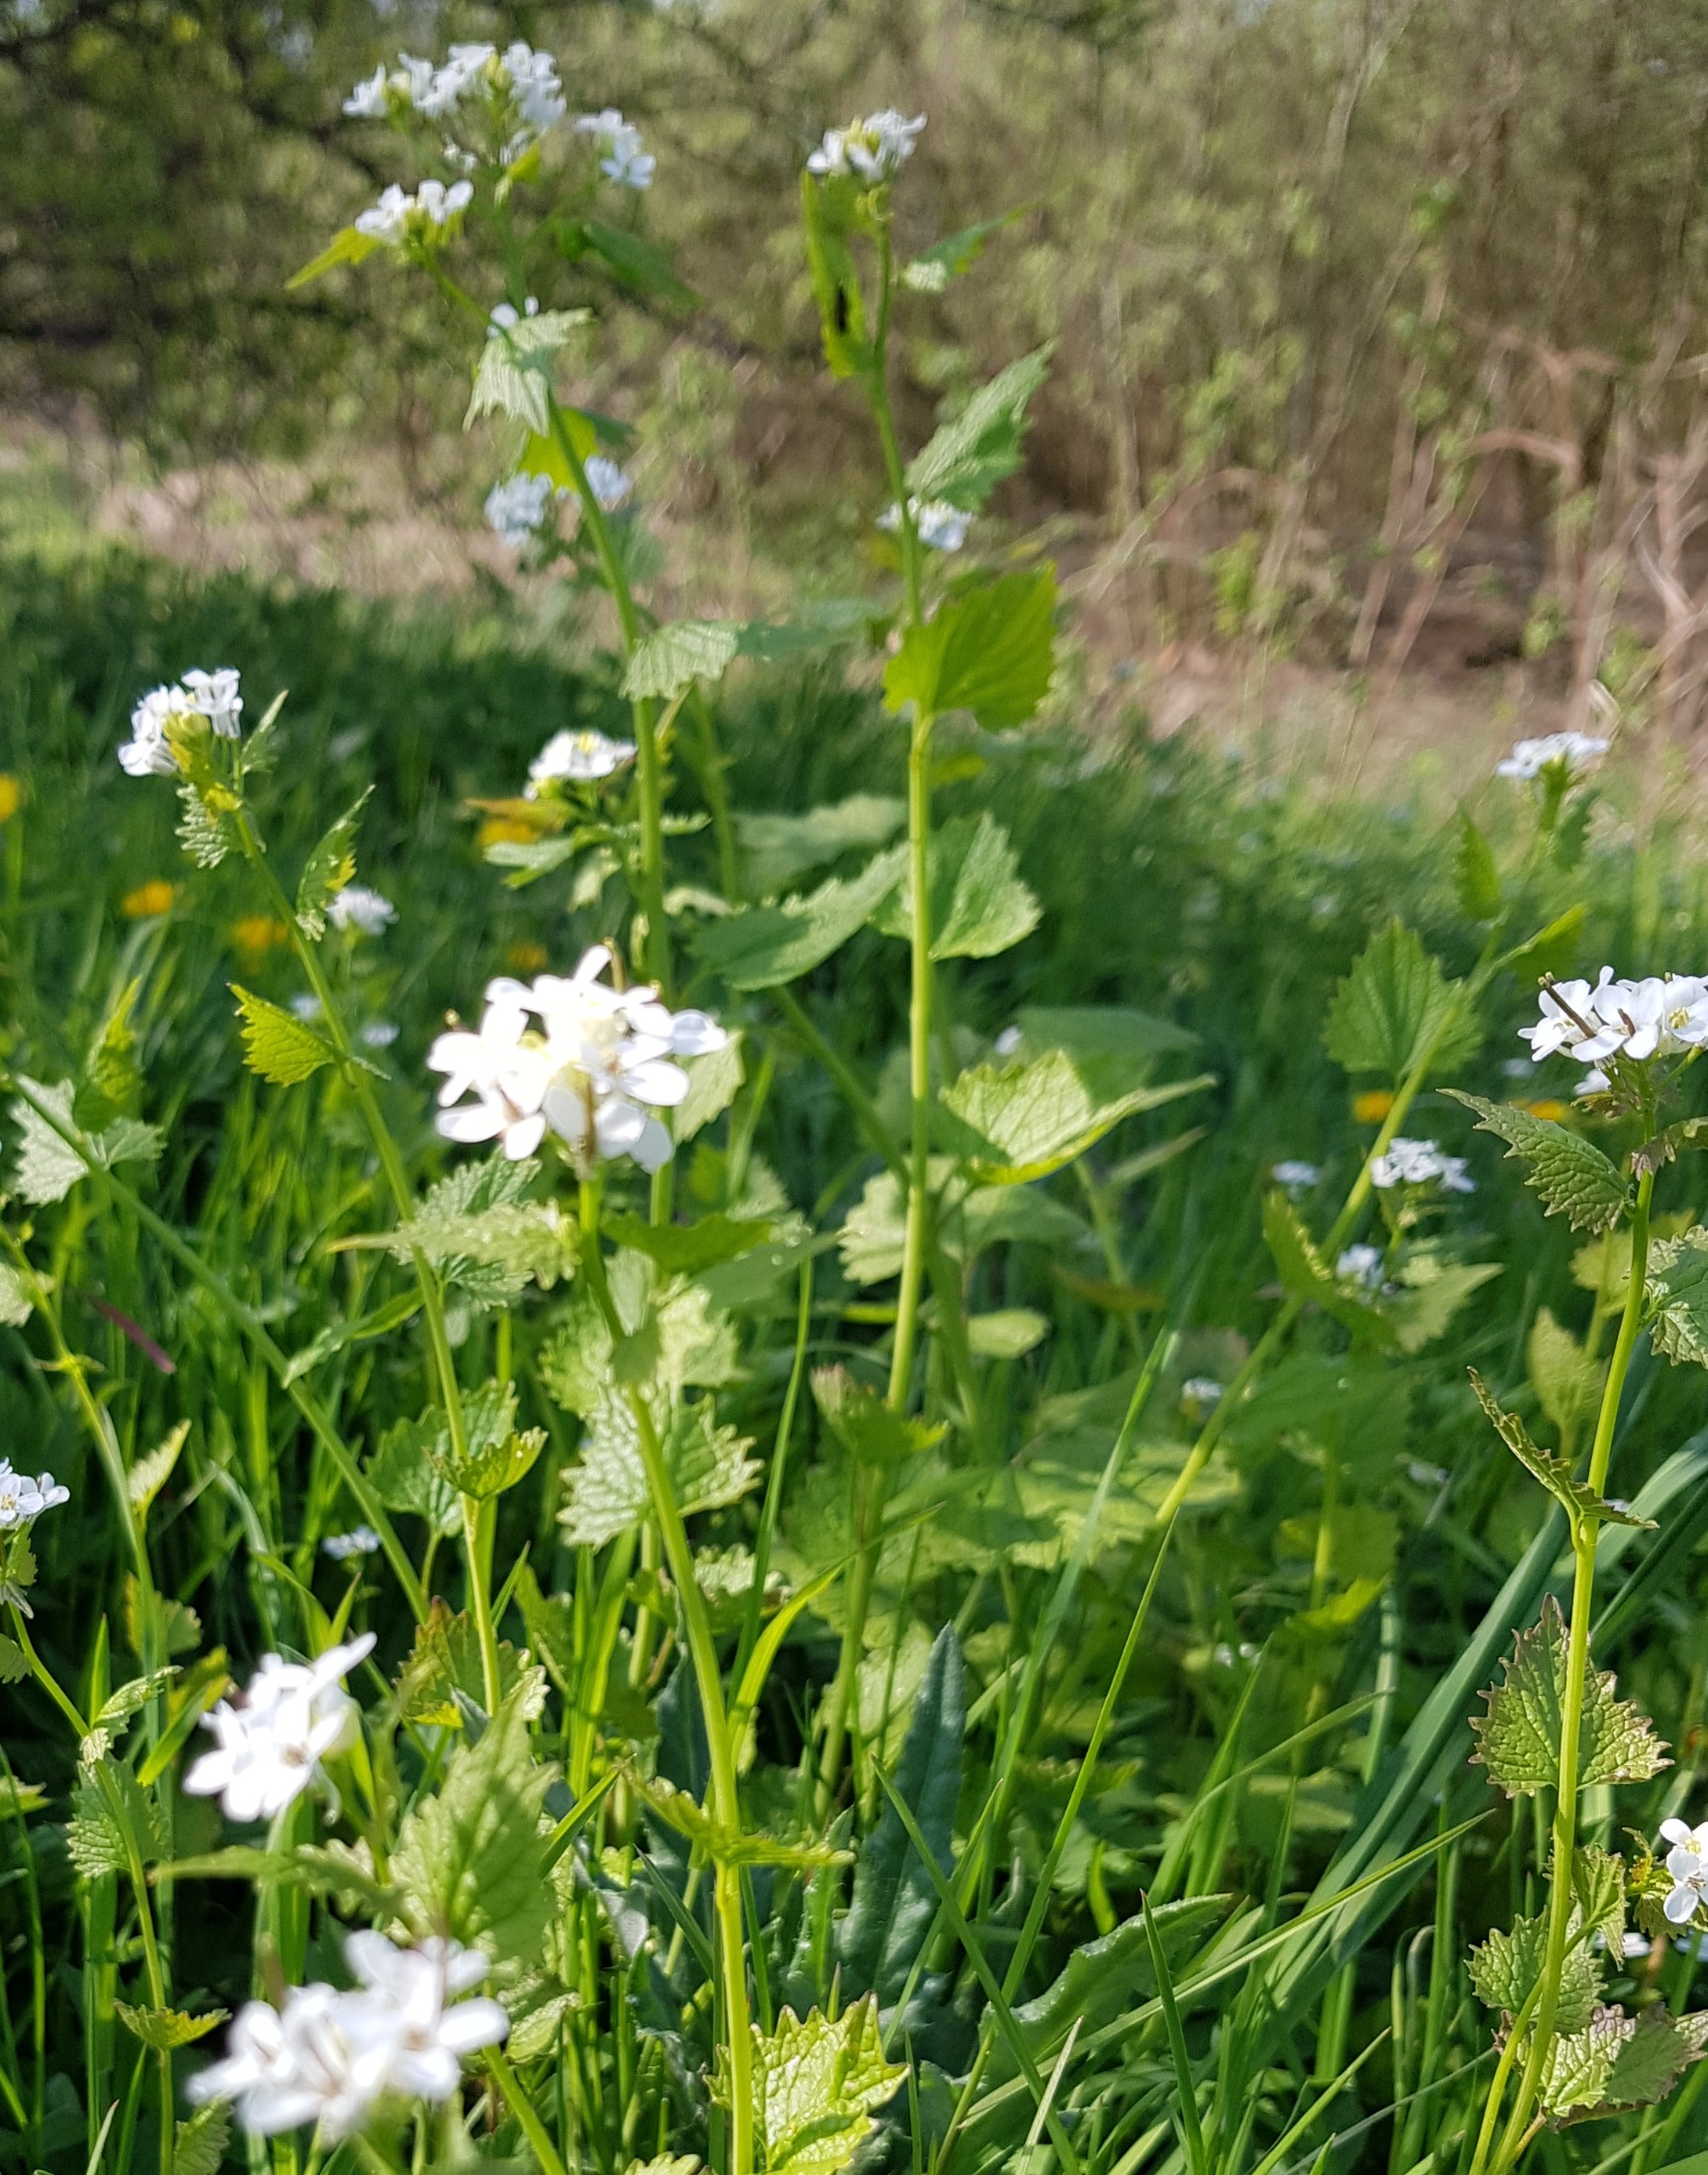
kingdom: Plantae
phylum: Tracheophyta
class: Magnoliopsida
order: Brassicales
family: Brassicaceae
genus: Alliaria
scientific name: Alliaria petiolata
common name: Løgkarse
